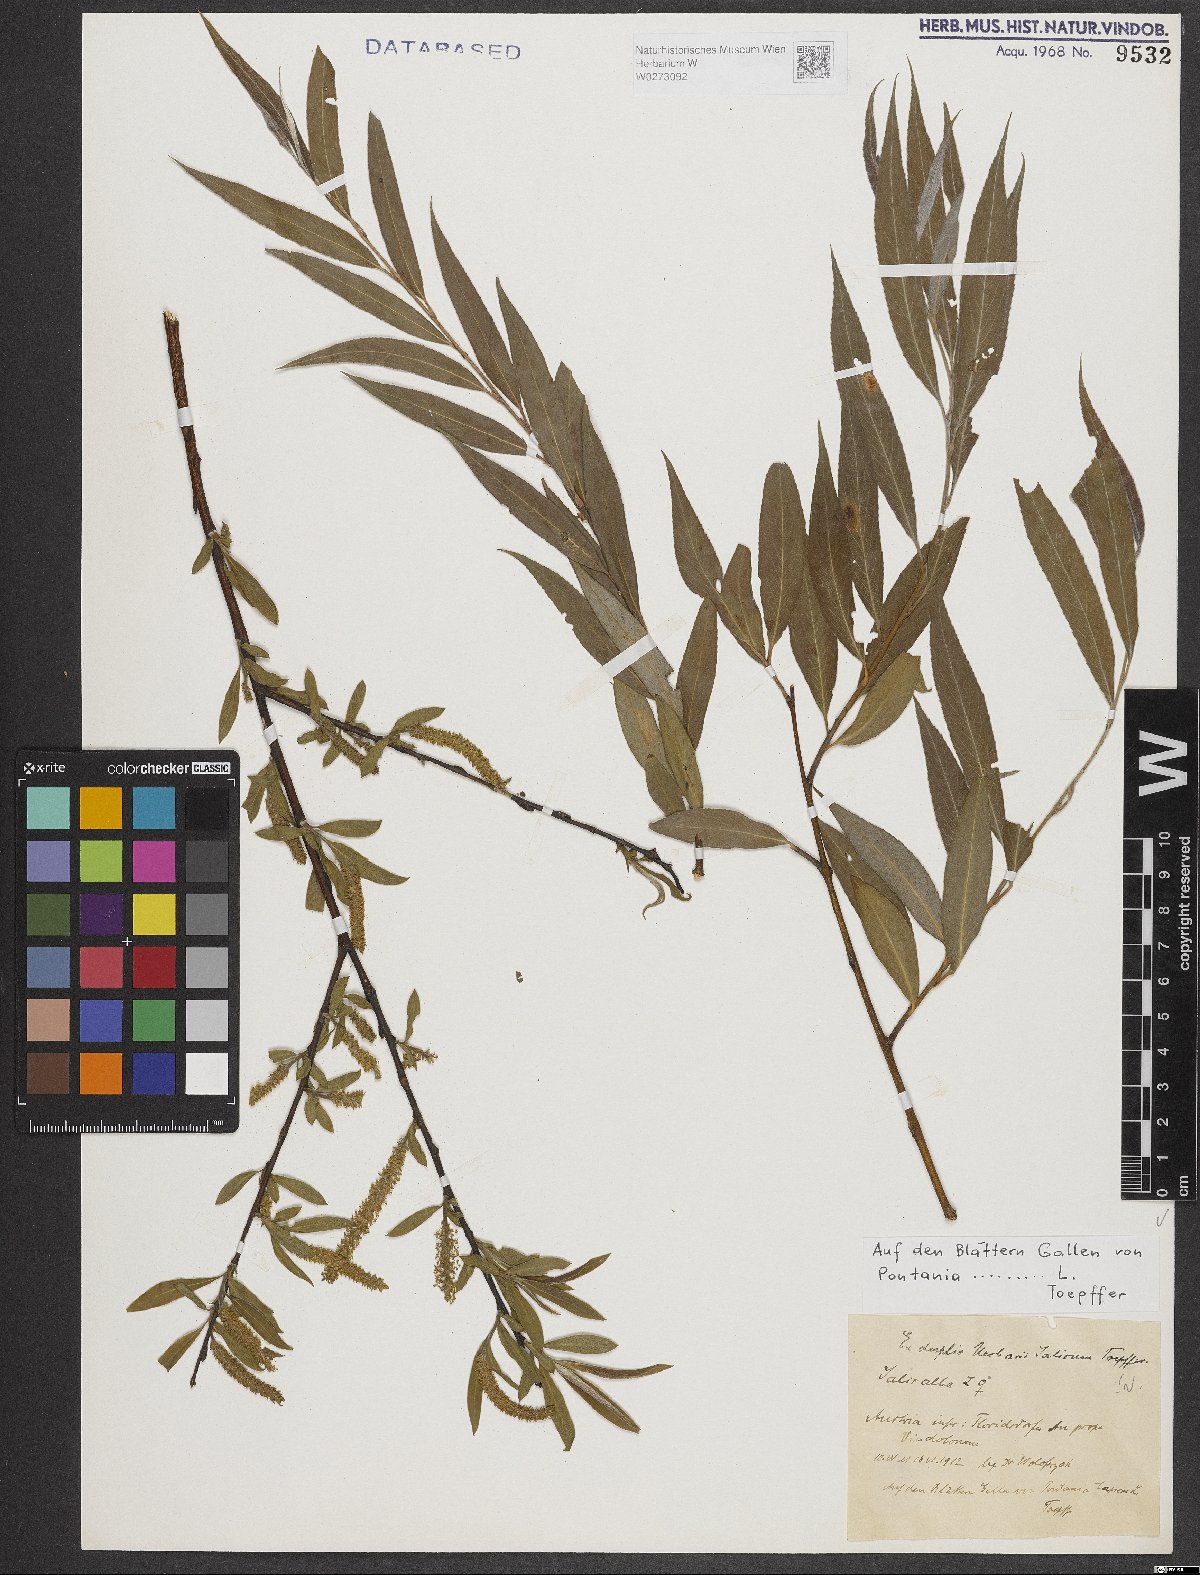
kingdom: Plantae
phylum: Tracheophyta
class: Magnoliopsida
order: Malpighiales
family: Salicaceae
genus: Salix
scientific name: Salix alba
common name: White willow
